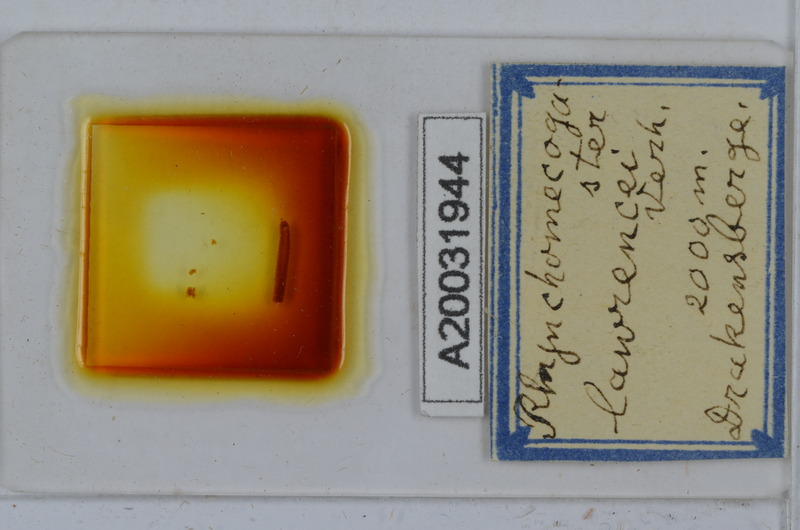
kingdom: Animalia
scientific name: Animalia
